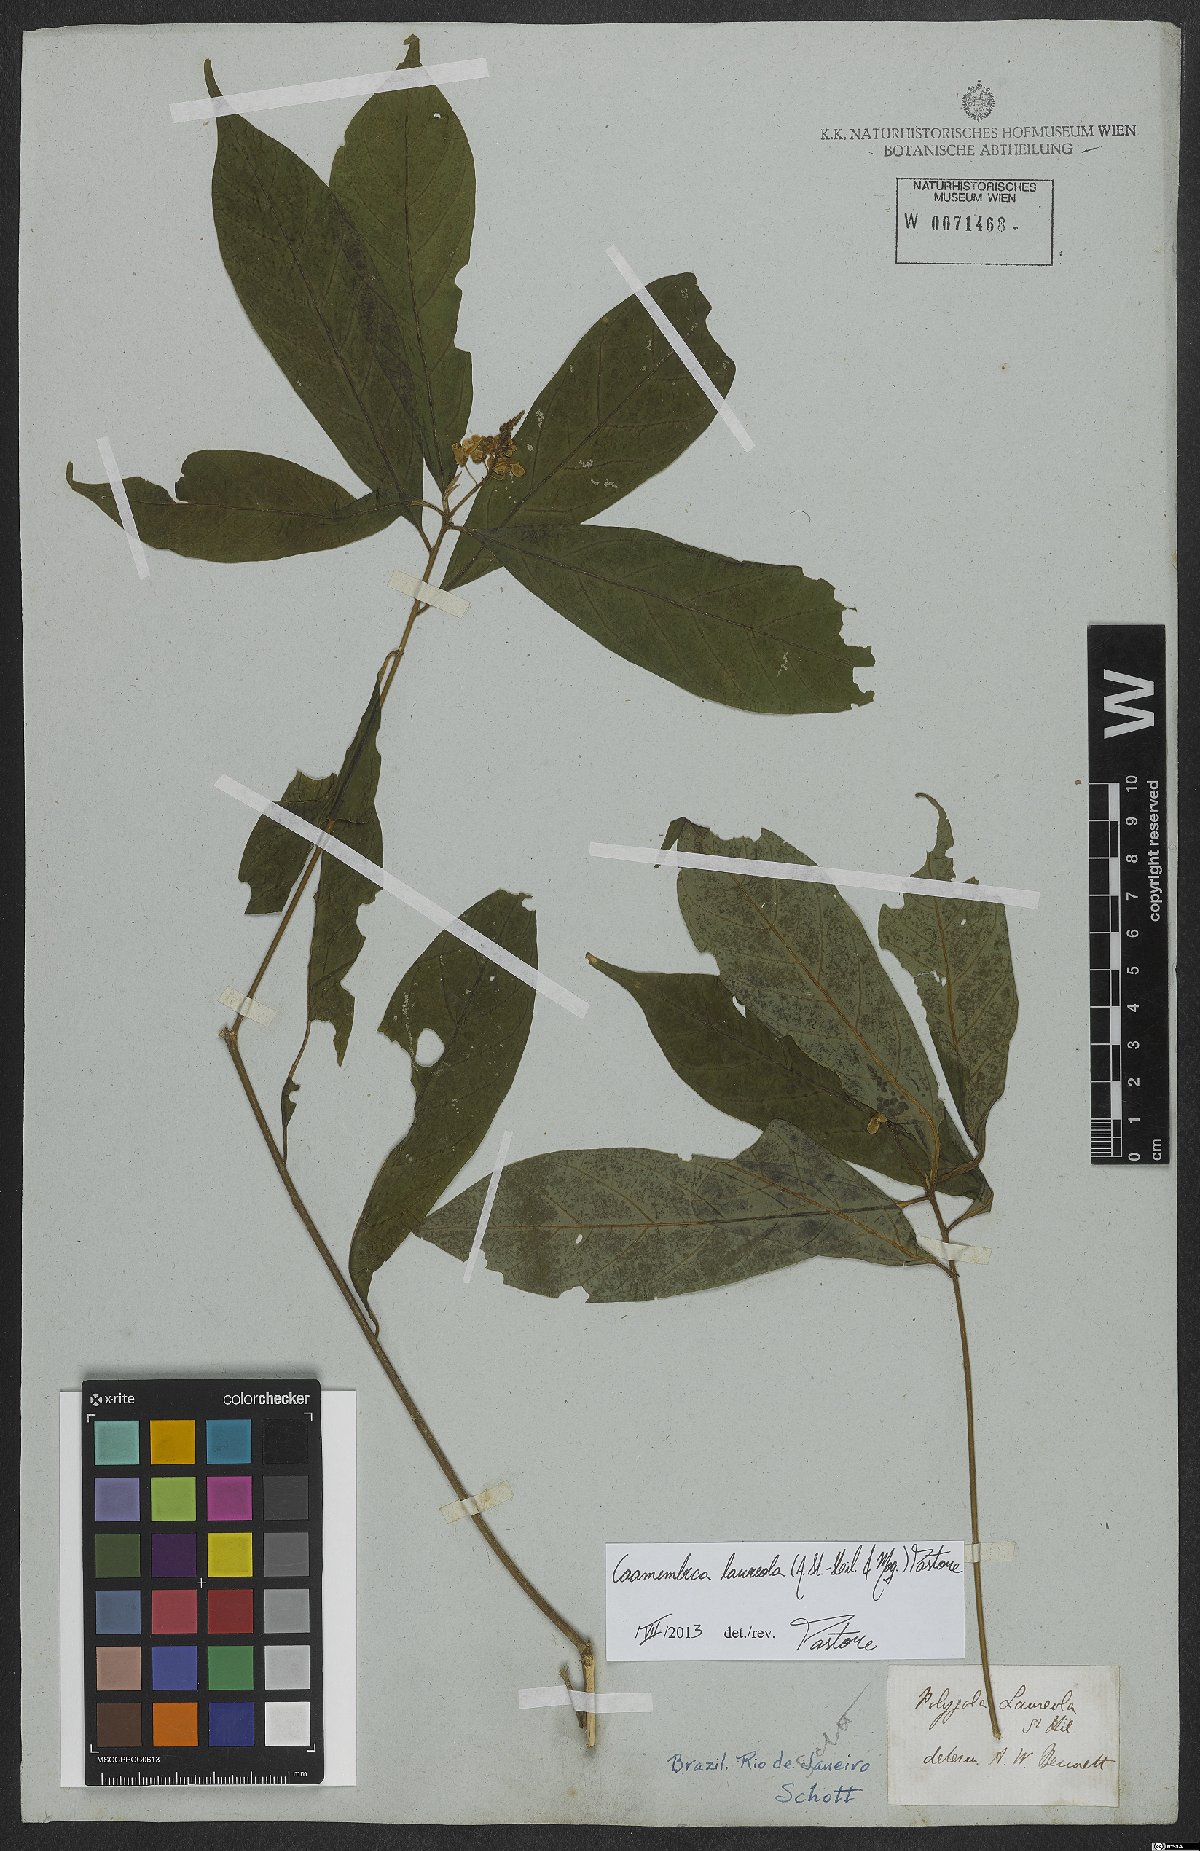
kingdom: Plantae
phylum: Tracheophyta
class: Magnoliopsida
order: Fabales
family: Polygalaceae
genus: Caamembeca
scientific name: Caamembeca salicifolia
